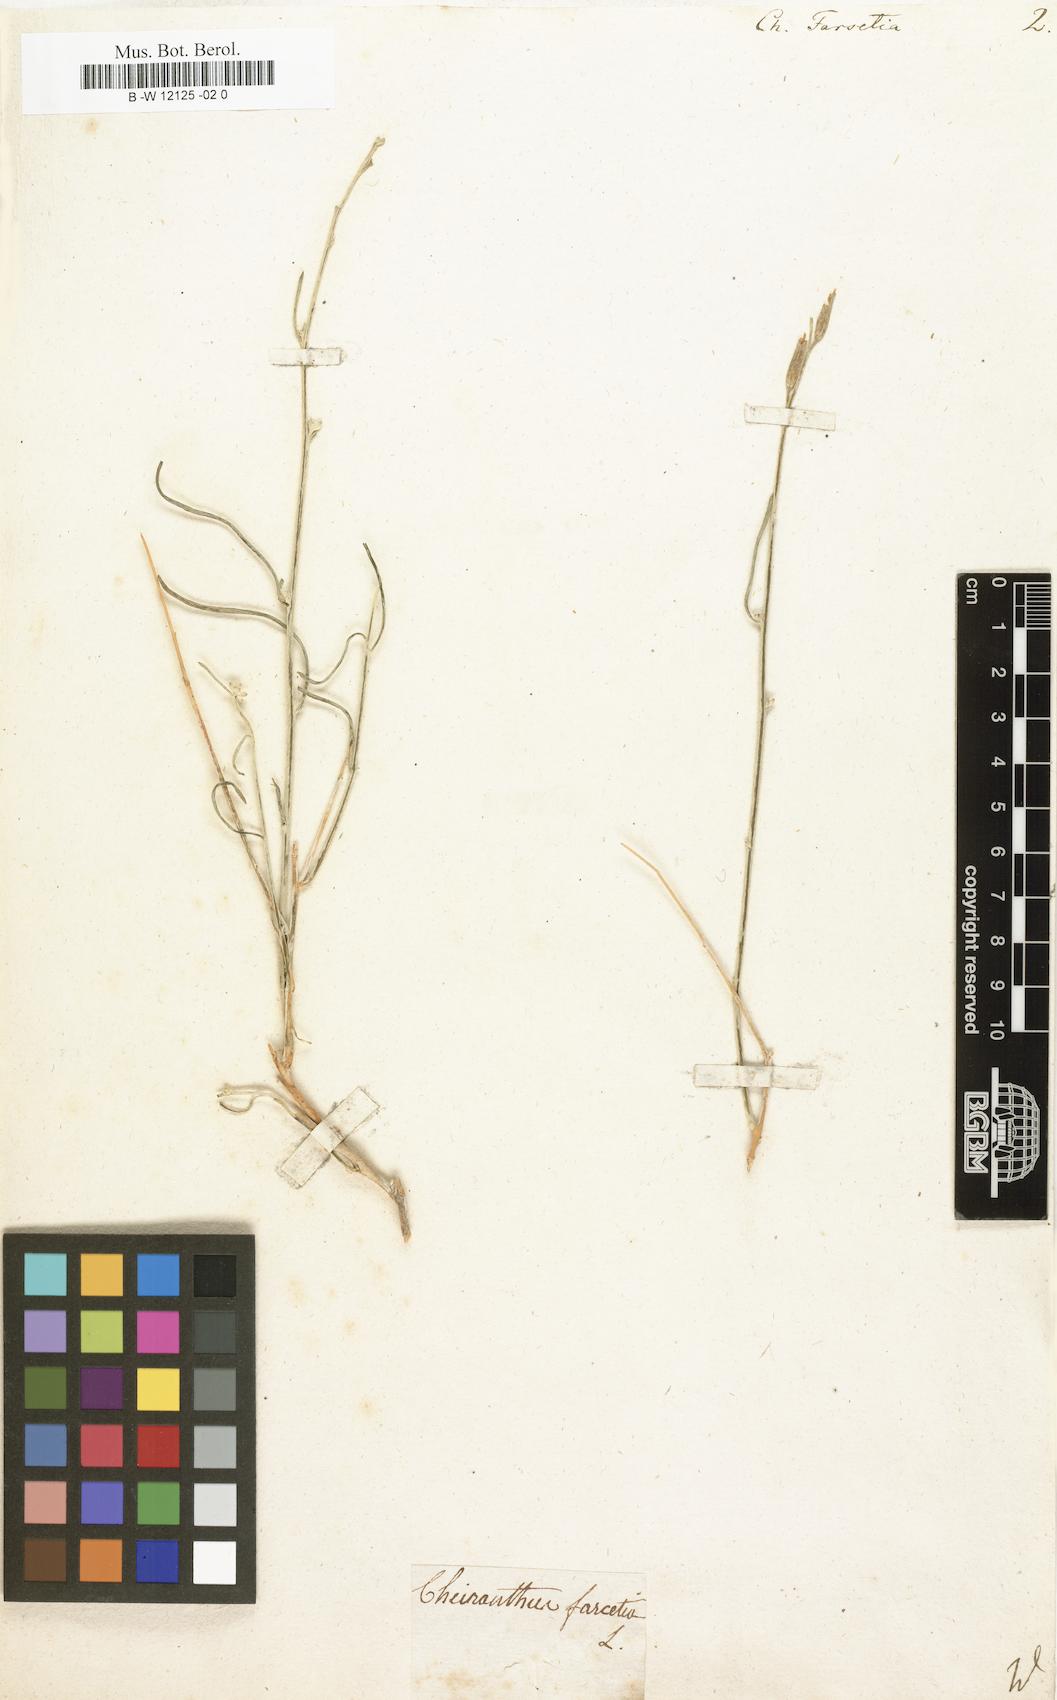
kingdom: Plantae
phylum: Tracheophyta
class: Magnoliopsida
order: Brassicales
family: Brassicaceae
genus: Farsetia
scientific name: Farsetia aegyptia
